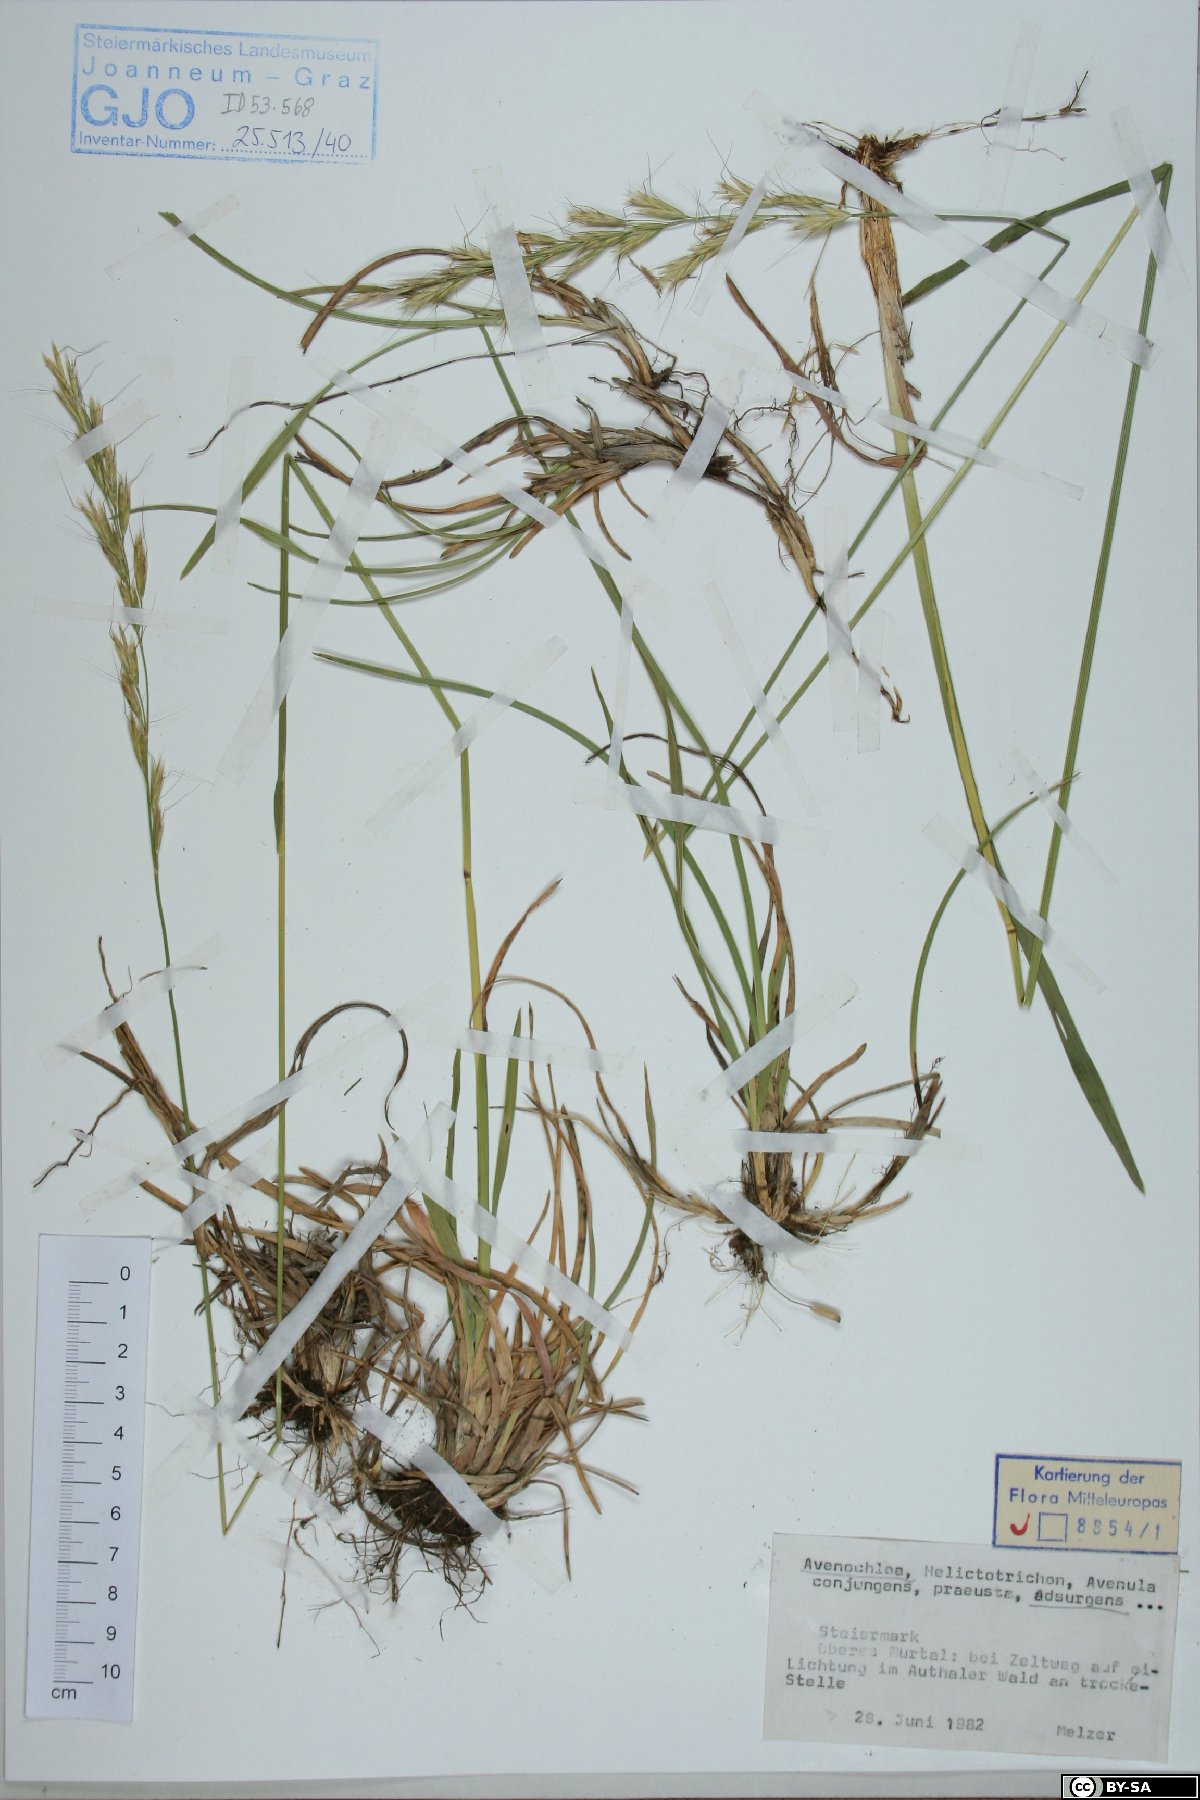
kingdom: Plantae
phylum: Tracheophyta
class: Liliopsida
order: Poales
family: Poaceae
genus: Helictochloa
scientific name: Helictochloa praeusta
